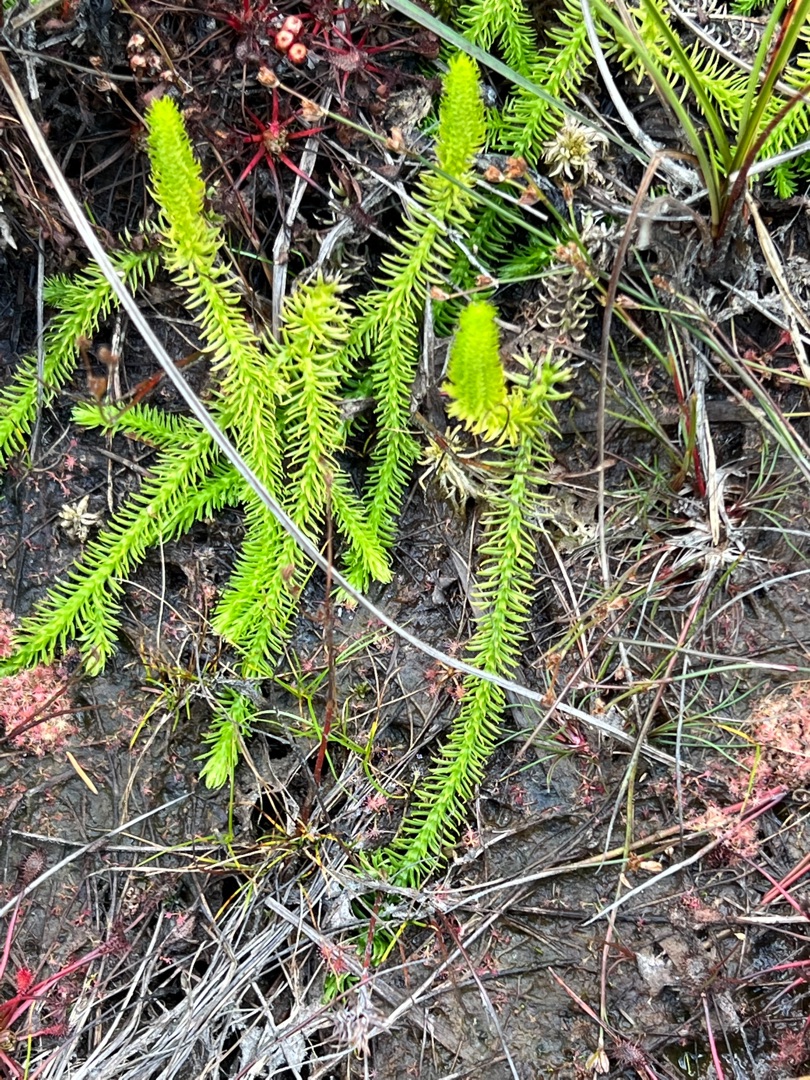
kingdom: Plantae
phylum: Tracheophyta
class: Lycopodiopsida
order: Lycopodiales
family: Lycopodiaceae
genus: Lycopodiella
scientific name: Lycopodiella inundata
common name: Liden ulvefod
